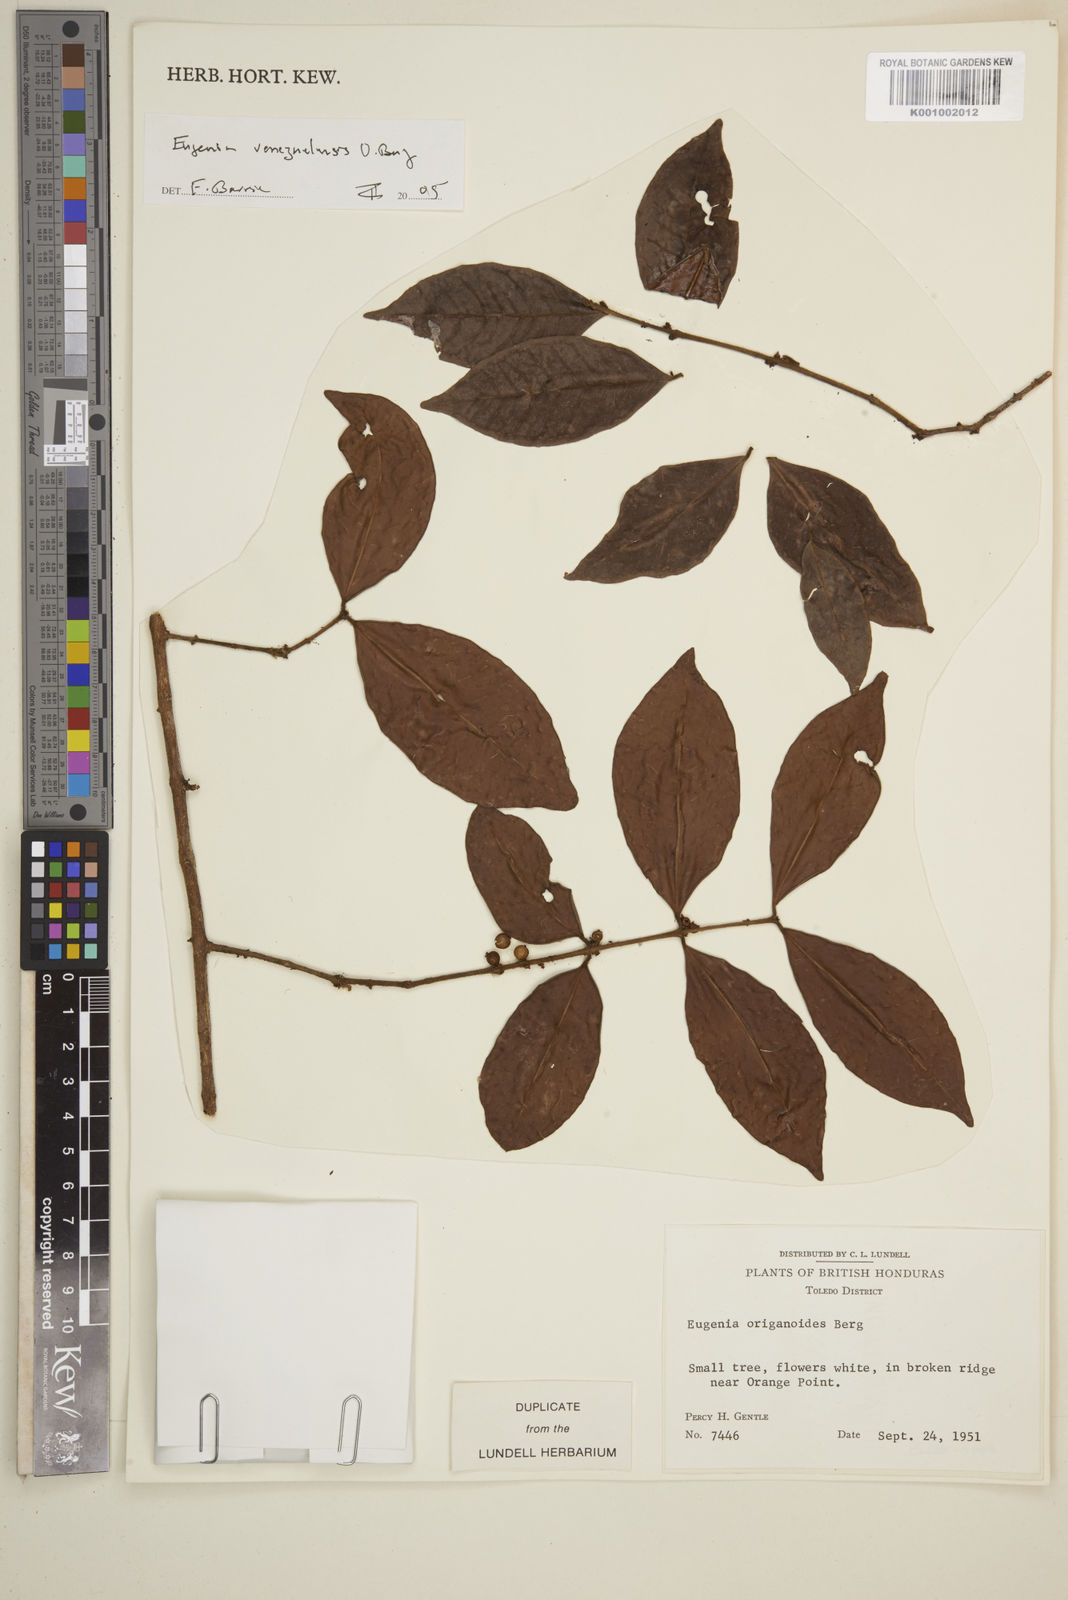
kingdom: Plantae
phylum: Tracheophyta
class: Magnoliopsida
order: Myrtales
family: Myrtaceae
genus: Eugenia
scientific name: Eugenia venezuelensis
